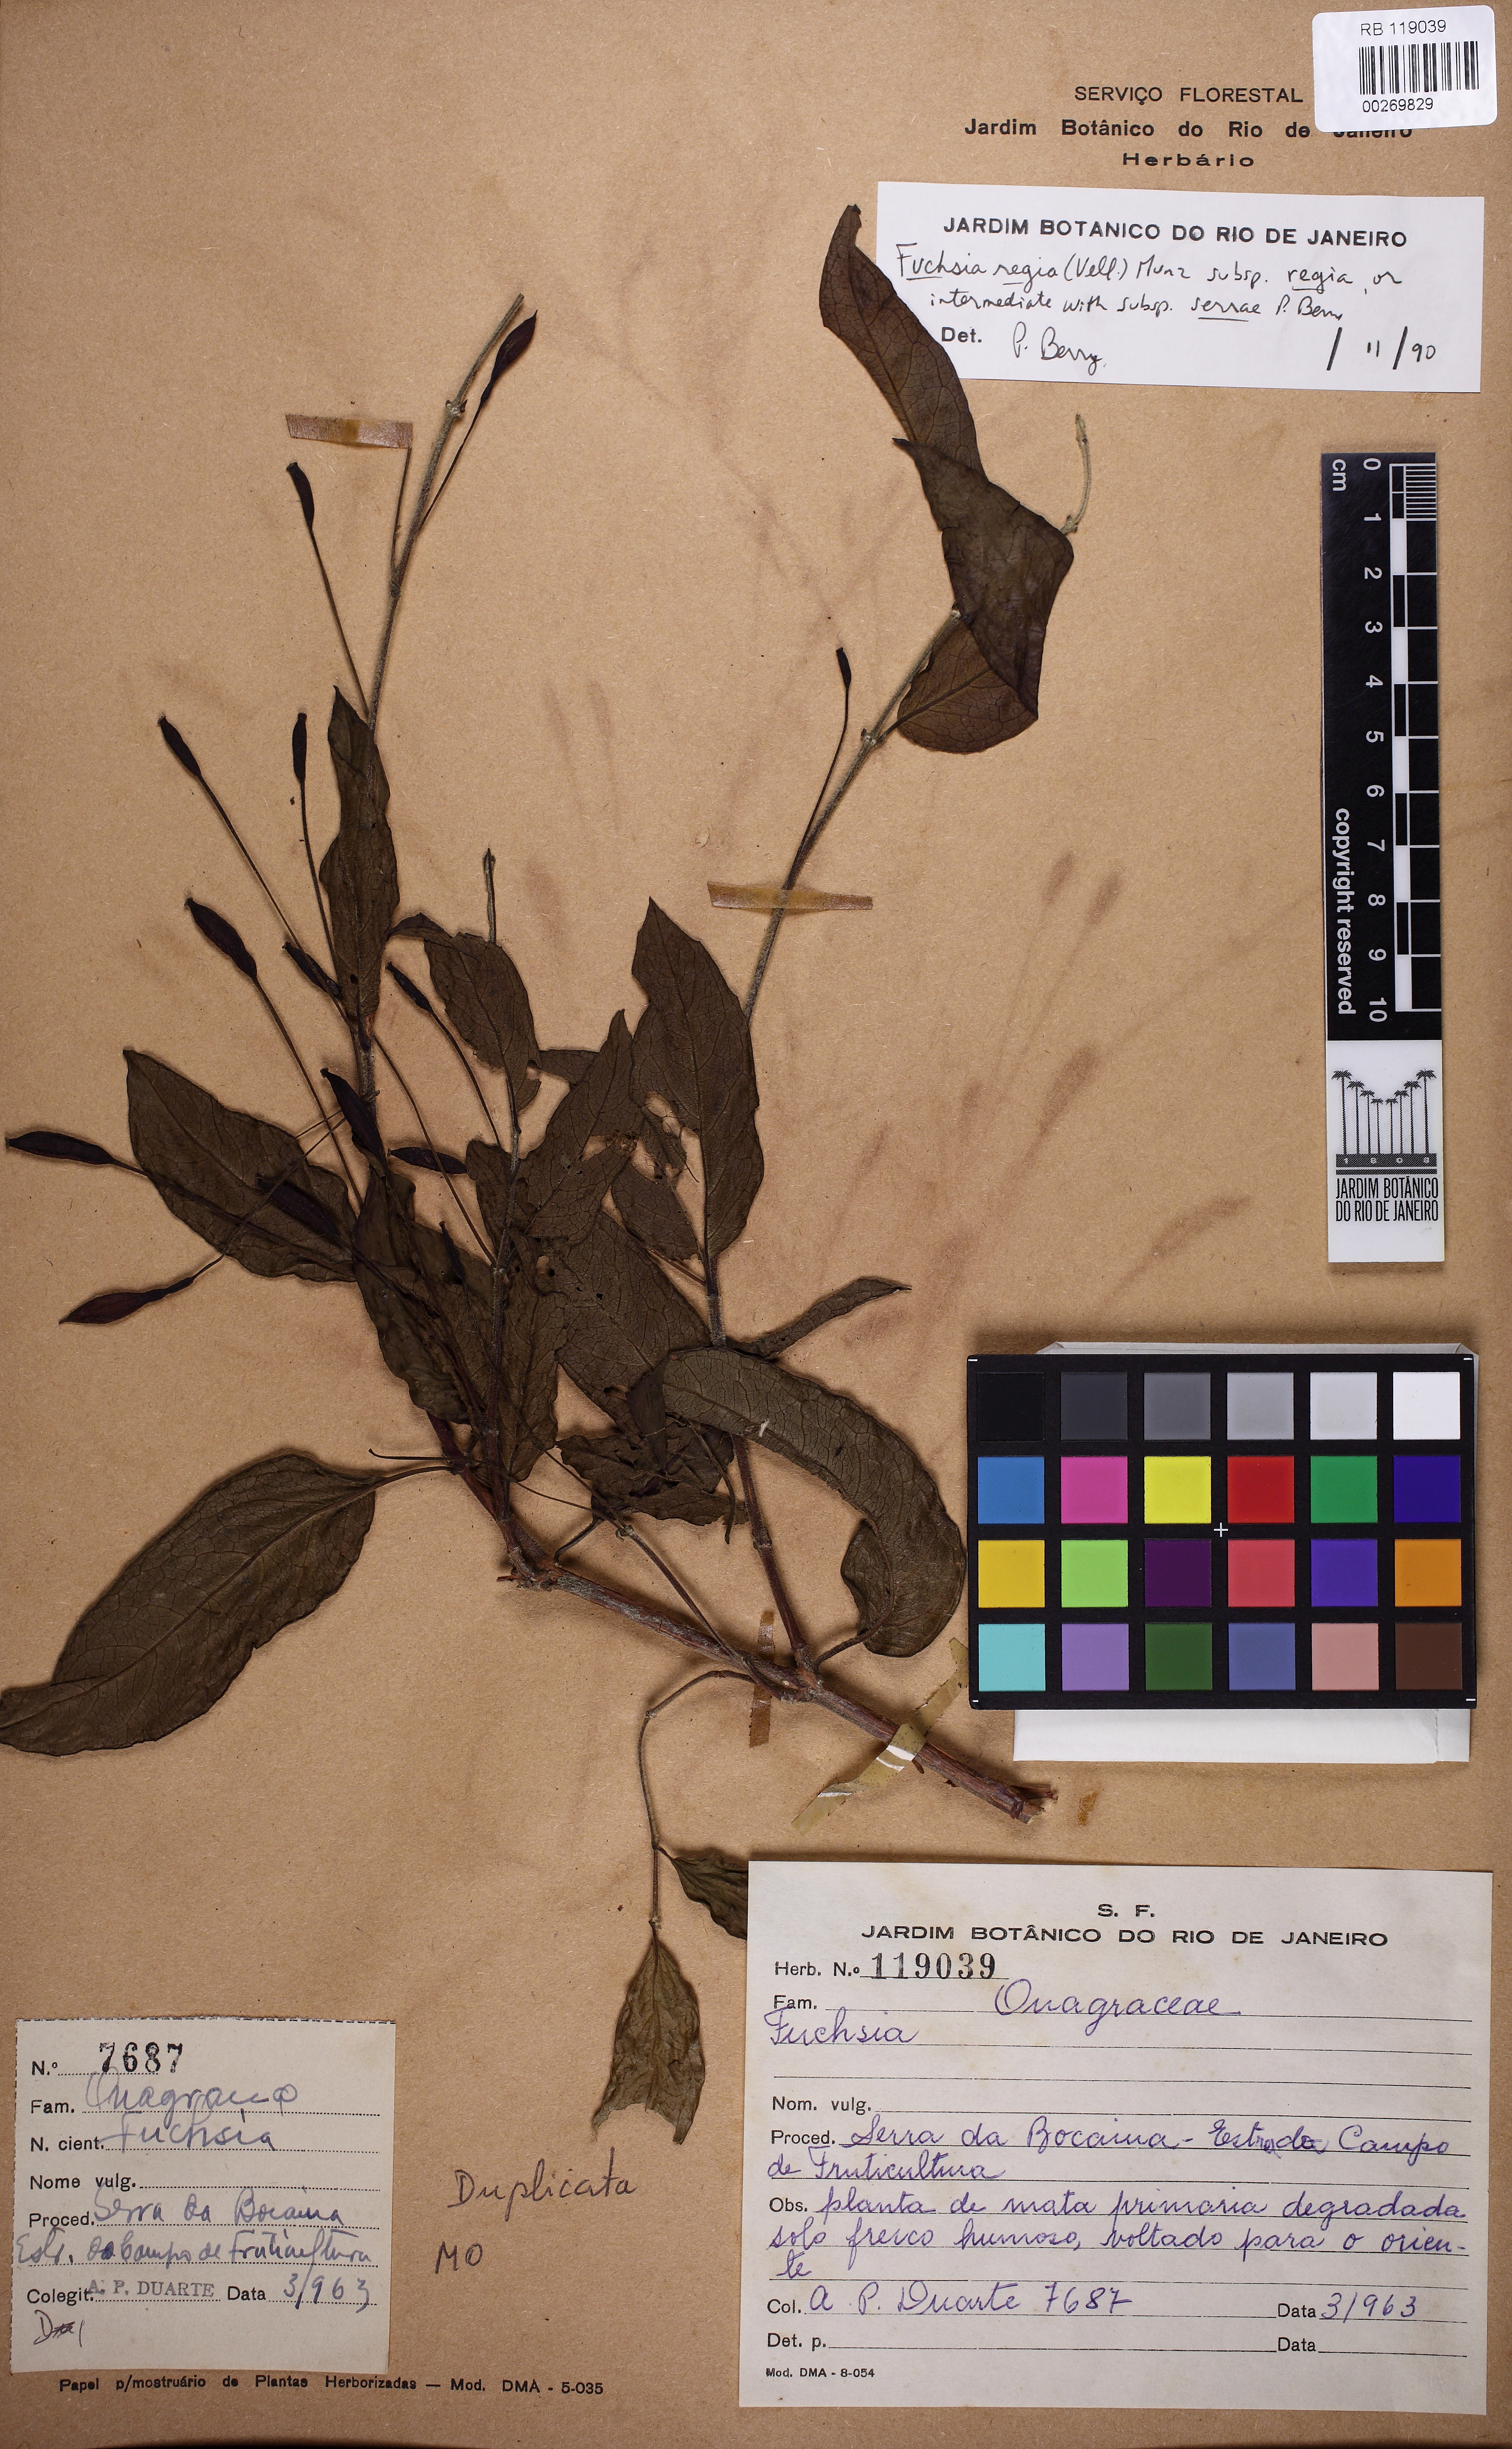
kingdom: Plantae
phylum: Tracheophyta
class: Magnoliopsida
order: Myrtales
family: Onagraceae
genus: Fuchsia
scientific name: Fuchsia regia
